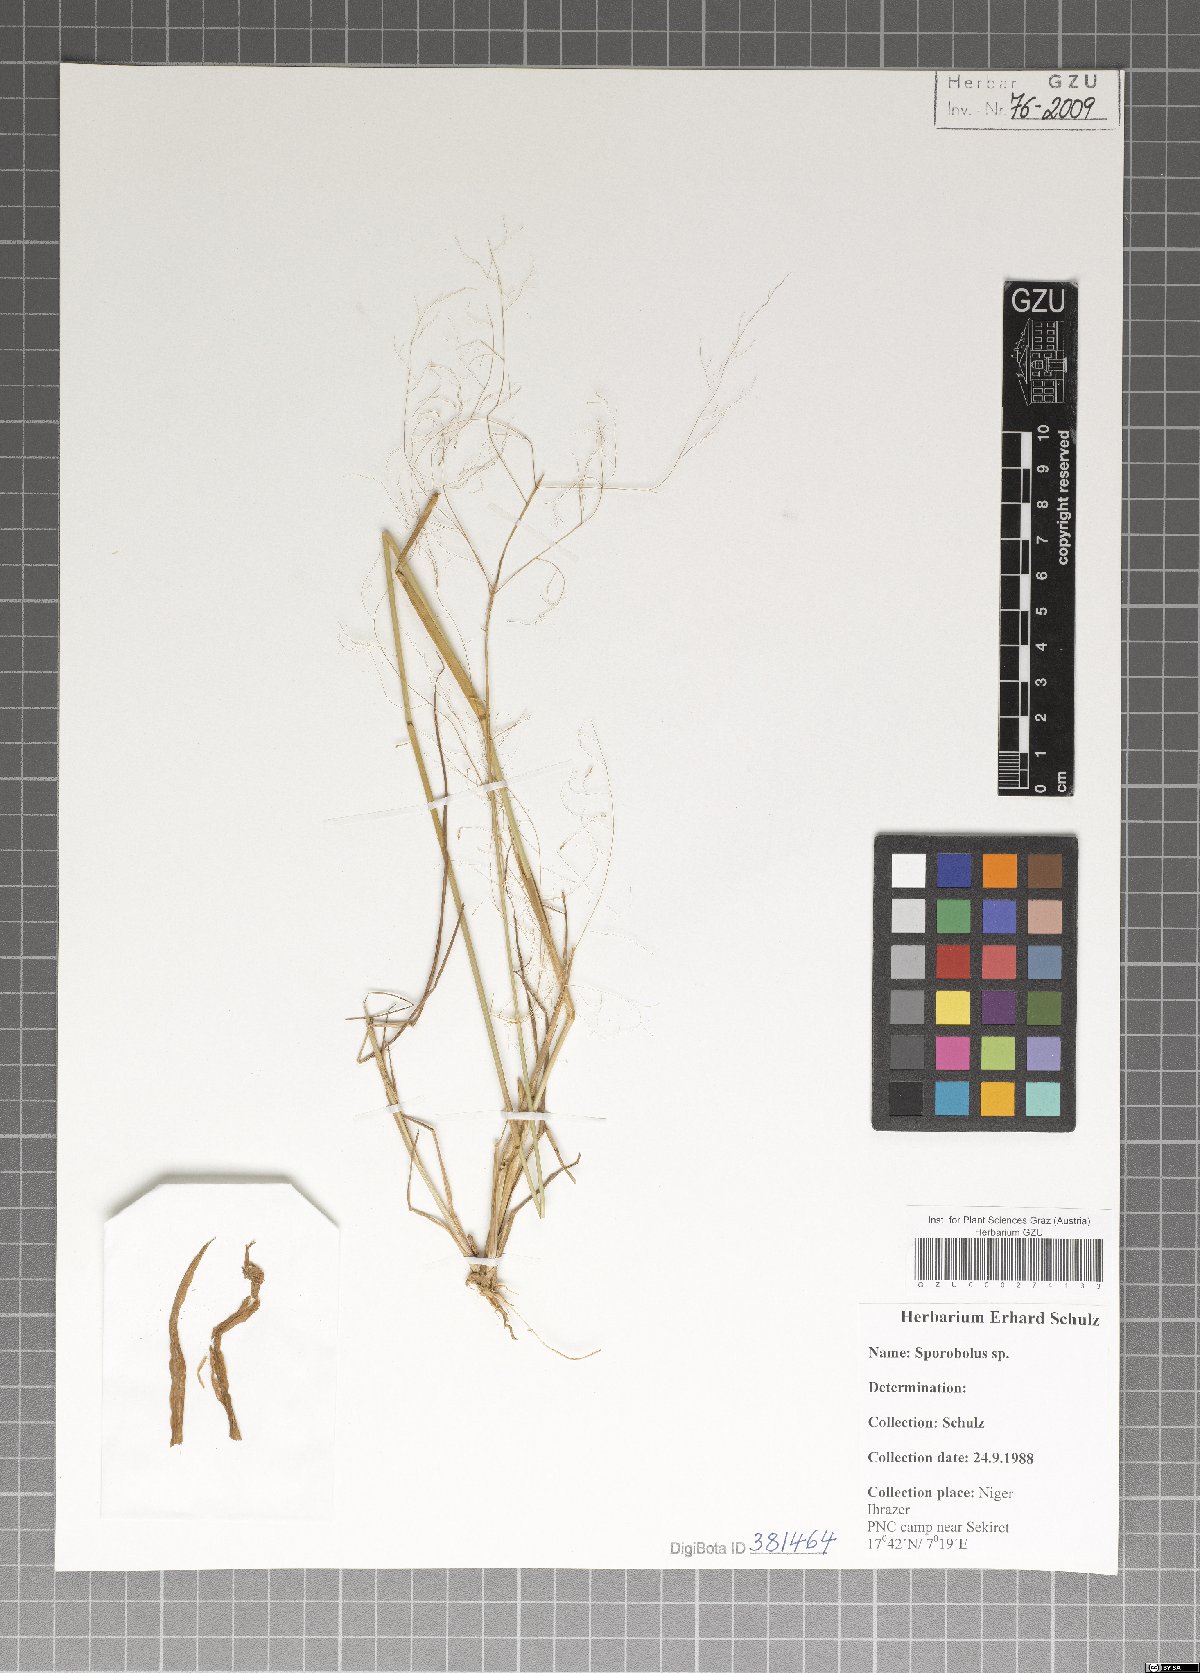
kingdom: Plantae
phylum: Tracheophyta
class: Liliopsida
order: Poales
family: Poaceae
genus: Sporobolus
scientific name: Sporobolus
